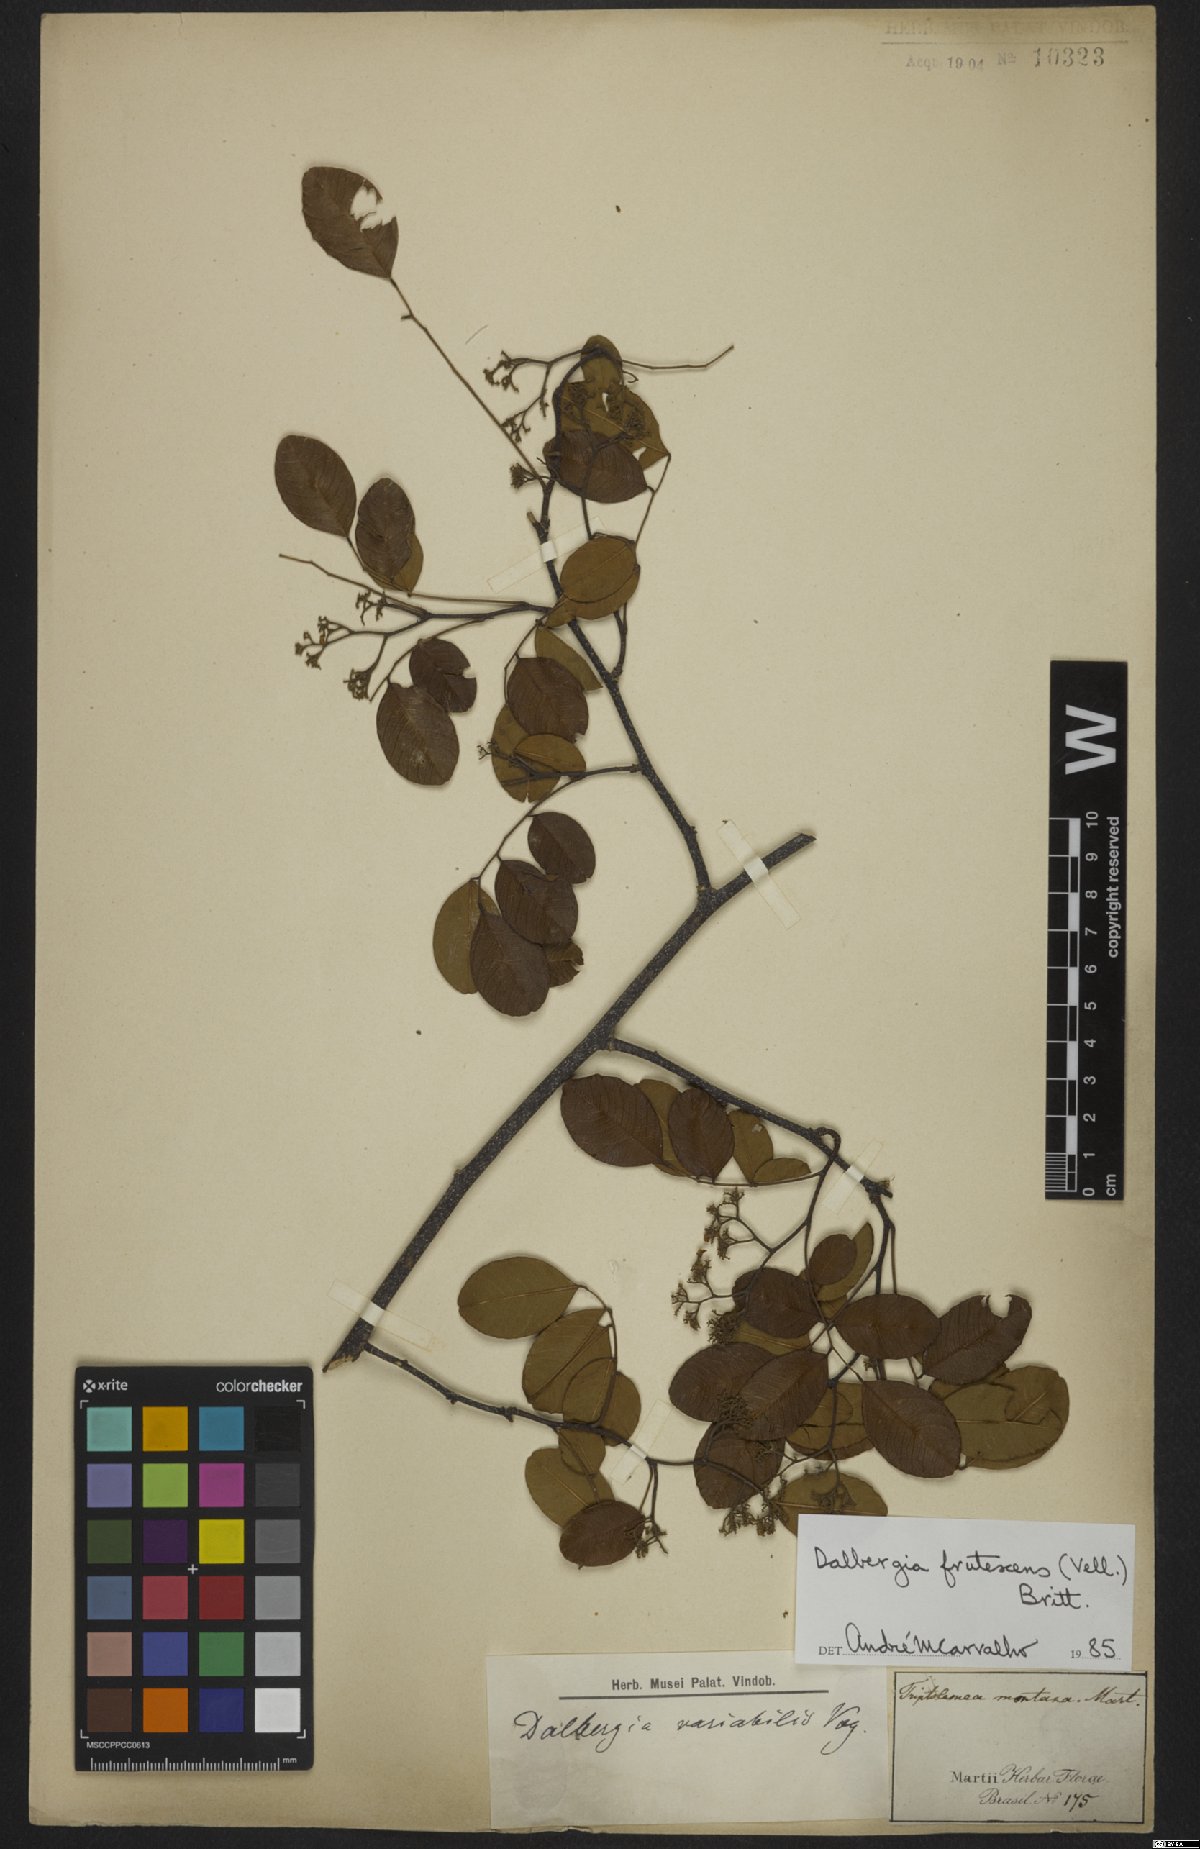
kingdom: Plantae
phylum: Tracheophyta
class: Magnoliopsida
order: Fabales
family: Fabaceae
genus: Dalbergia
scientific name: Dalbergia frutescens
